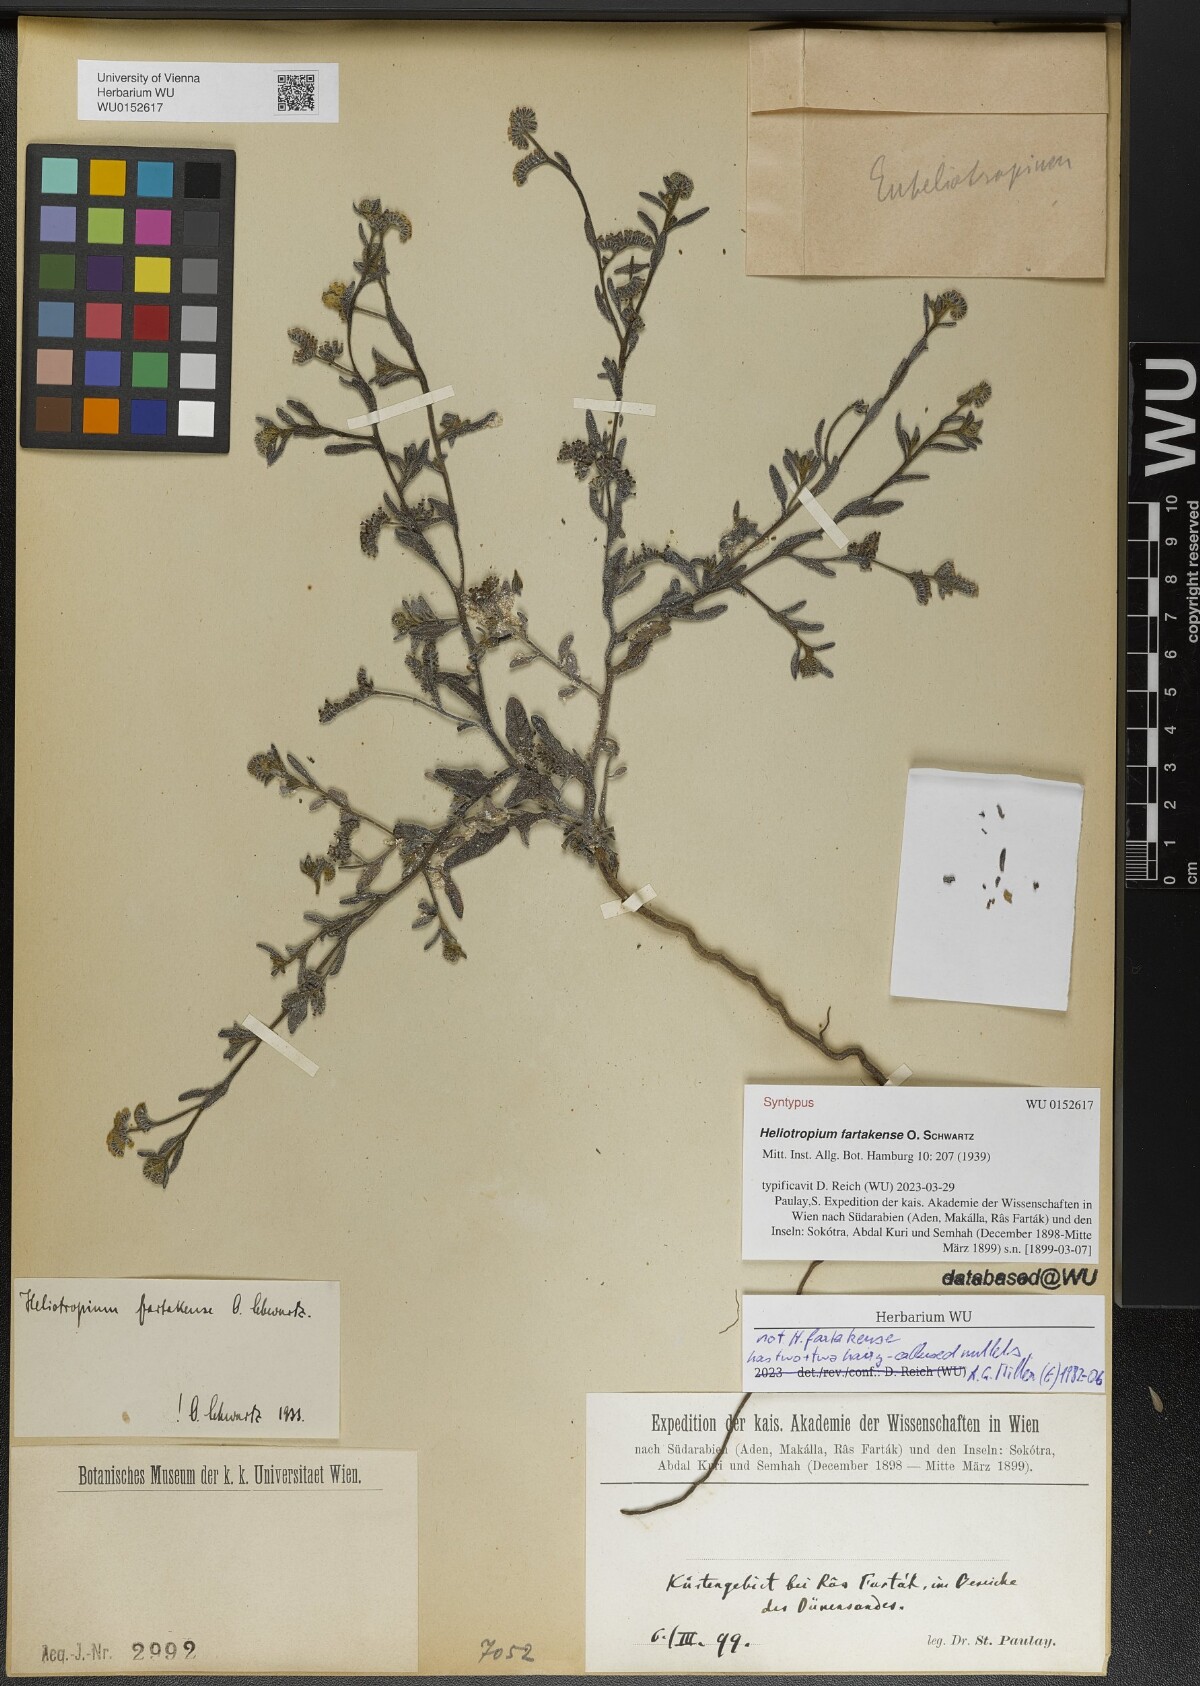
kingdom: Plantae
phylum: Tracheophyta
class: Magnoliopsida
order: Boraginales
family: Heliotropiaceae
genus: Heliotropium
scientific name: Heliotropium bacciferum
